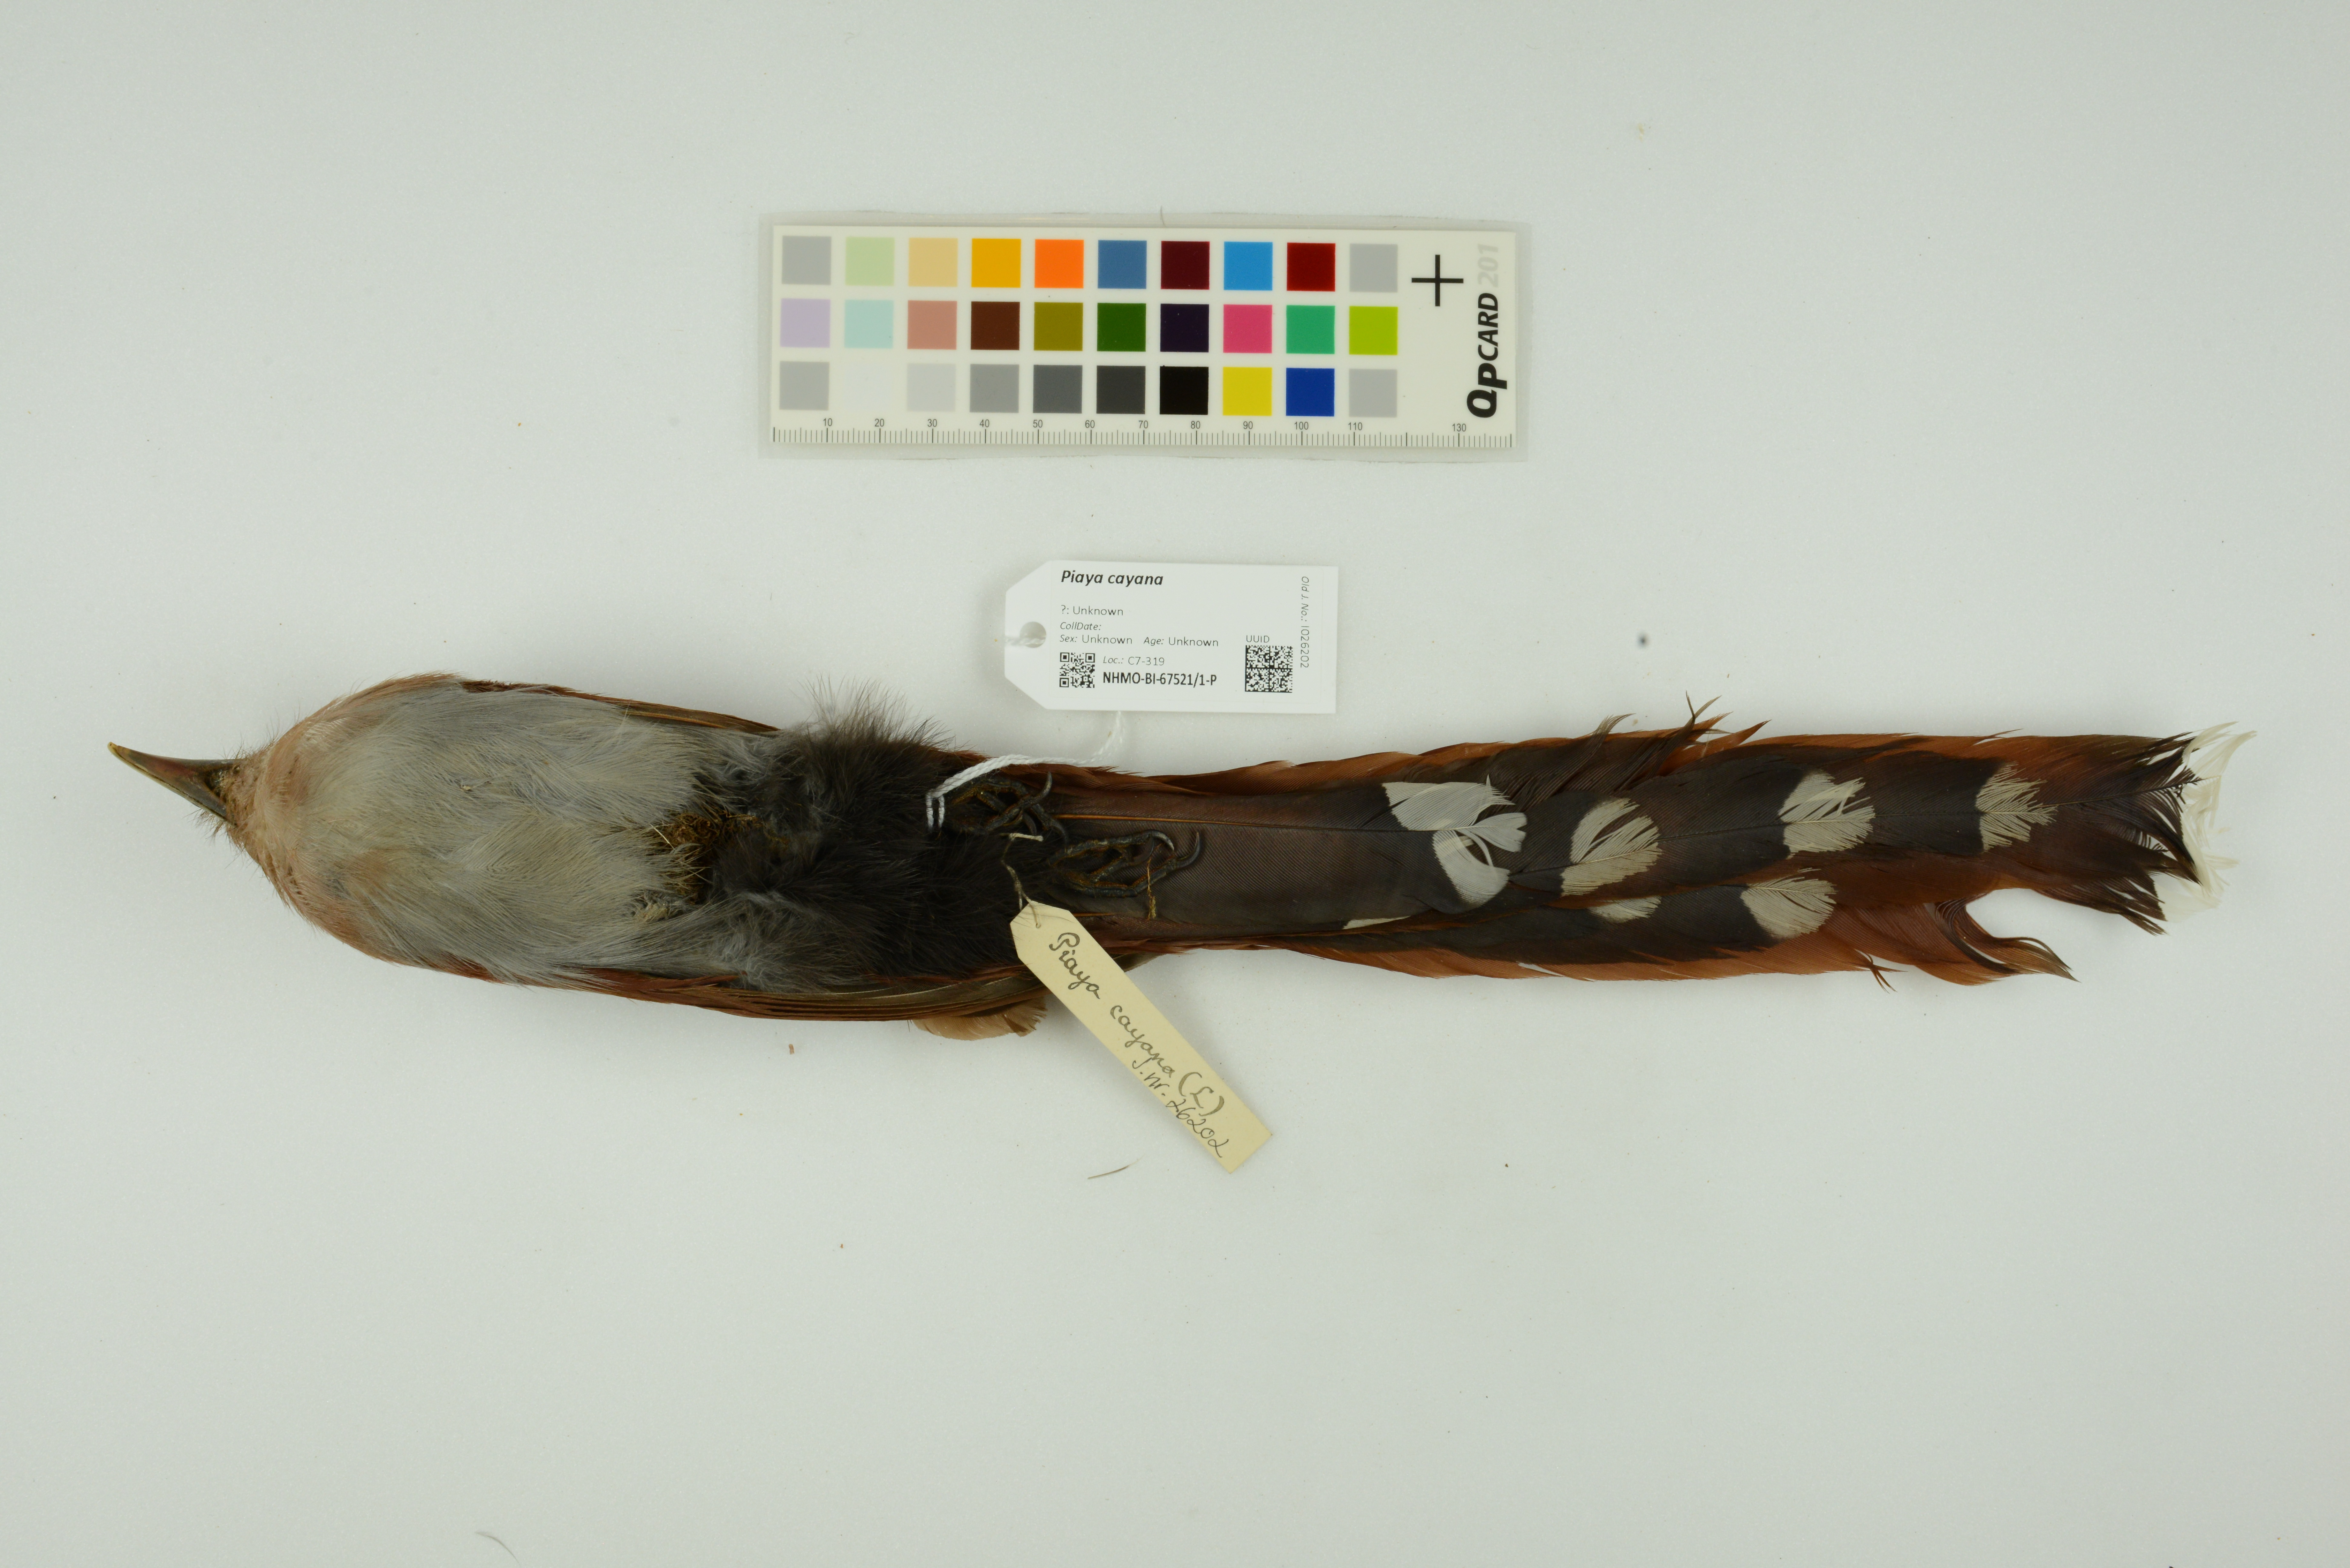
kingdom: Animalia
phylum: Chordata
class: Aves
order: Cuculiformes
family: Cuculidae
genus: Piaya
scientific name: Piaya cayana
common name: Squirrel cuckoo
